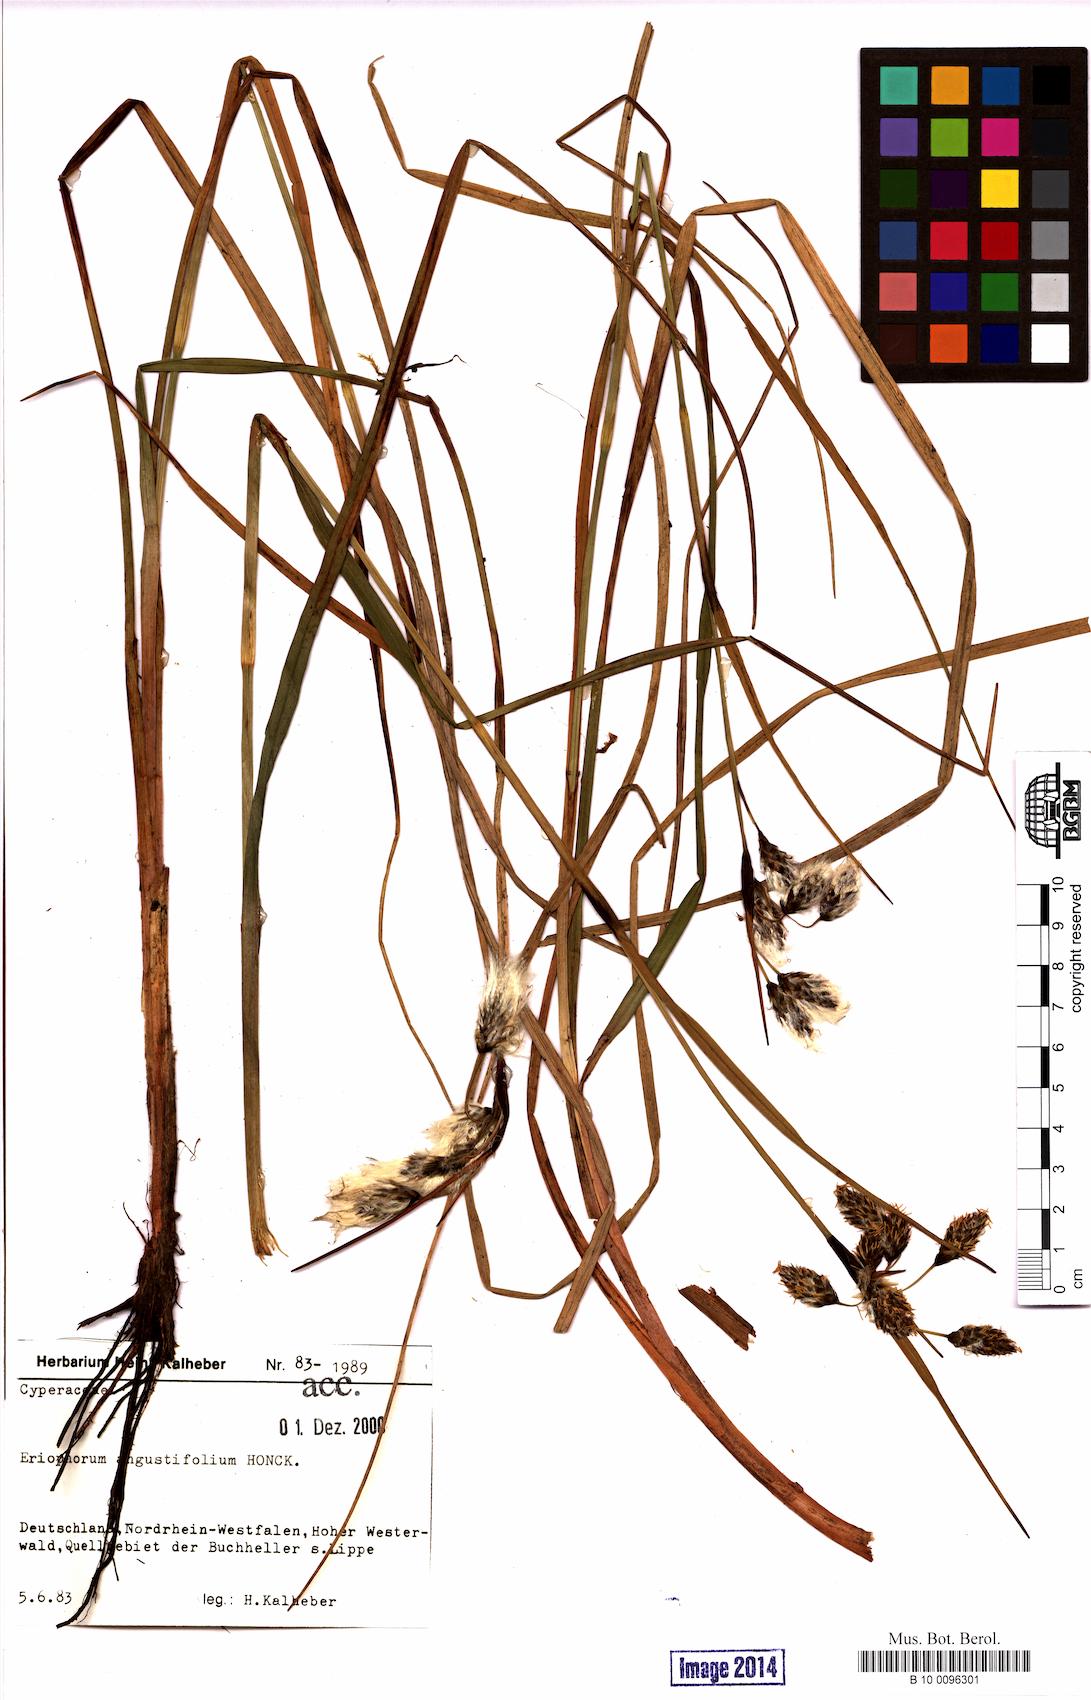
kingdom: Plantae
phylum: Tracheophyta
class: Liliopsida
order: Poales
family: Cyperaceae
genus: Eriophorum
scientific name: Eriophorum angustifolium
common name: Common cottongrass
